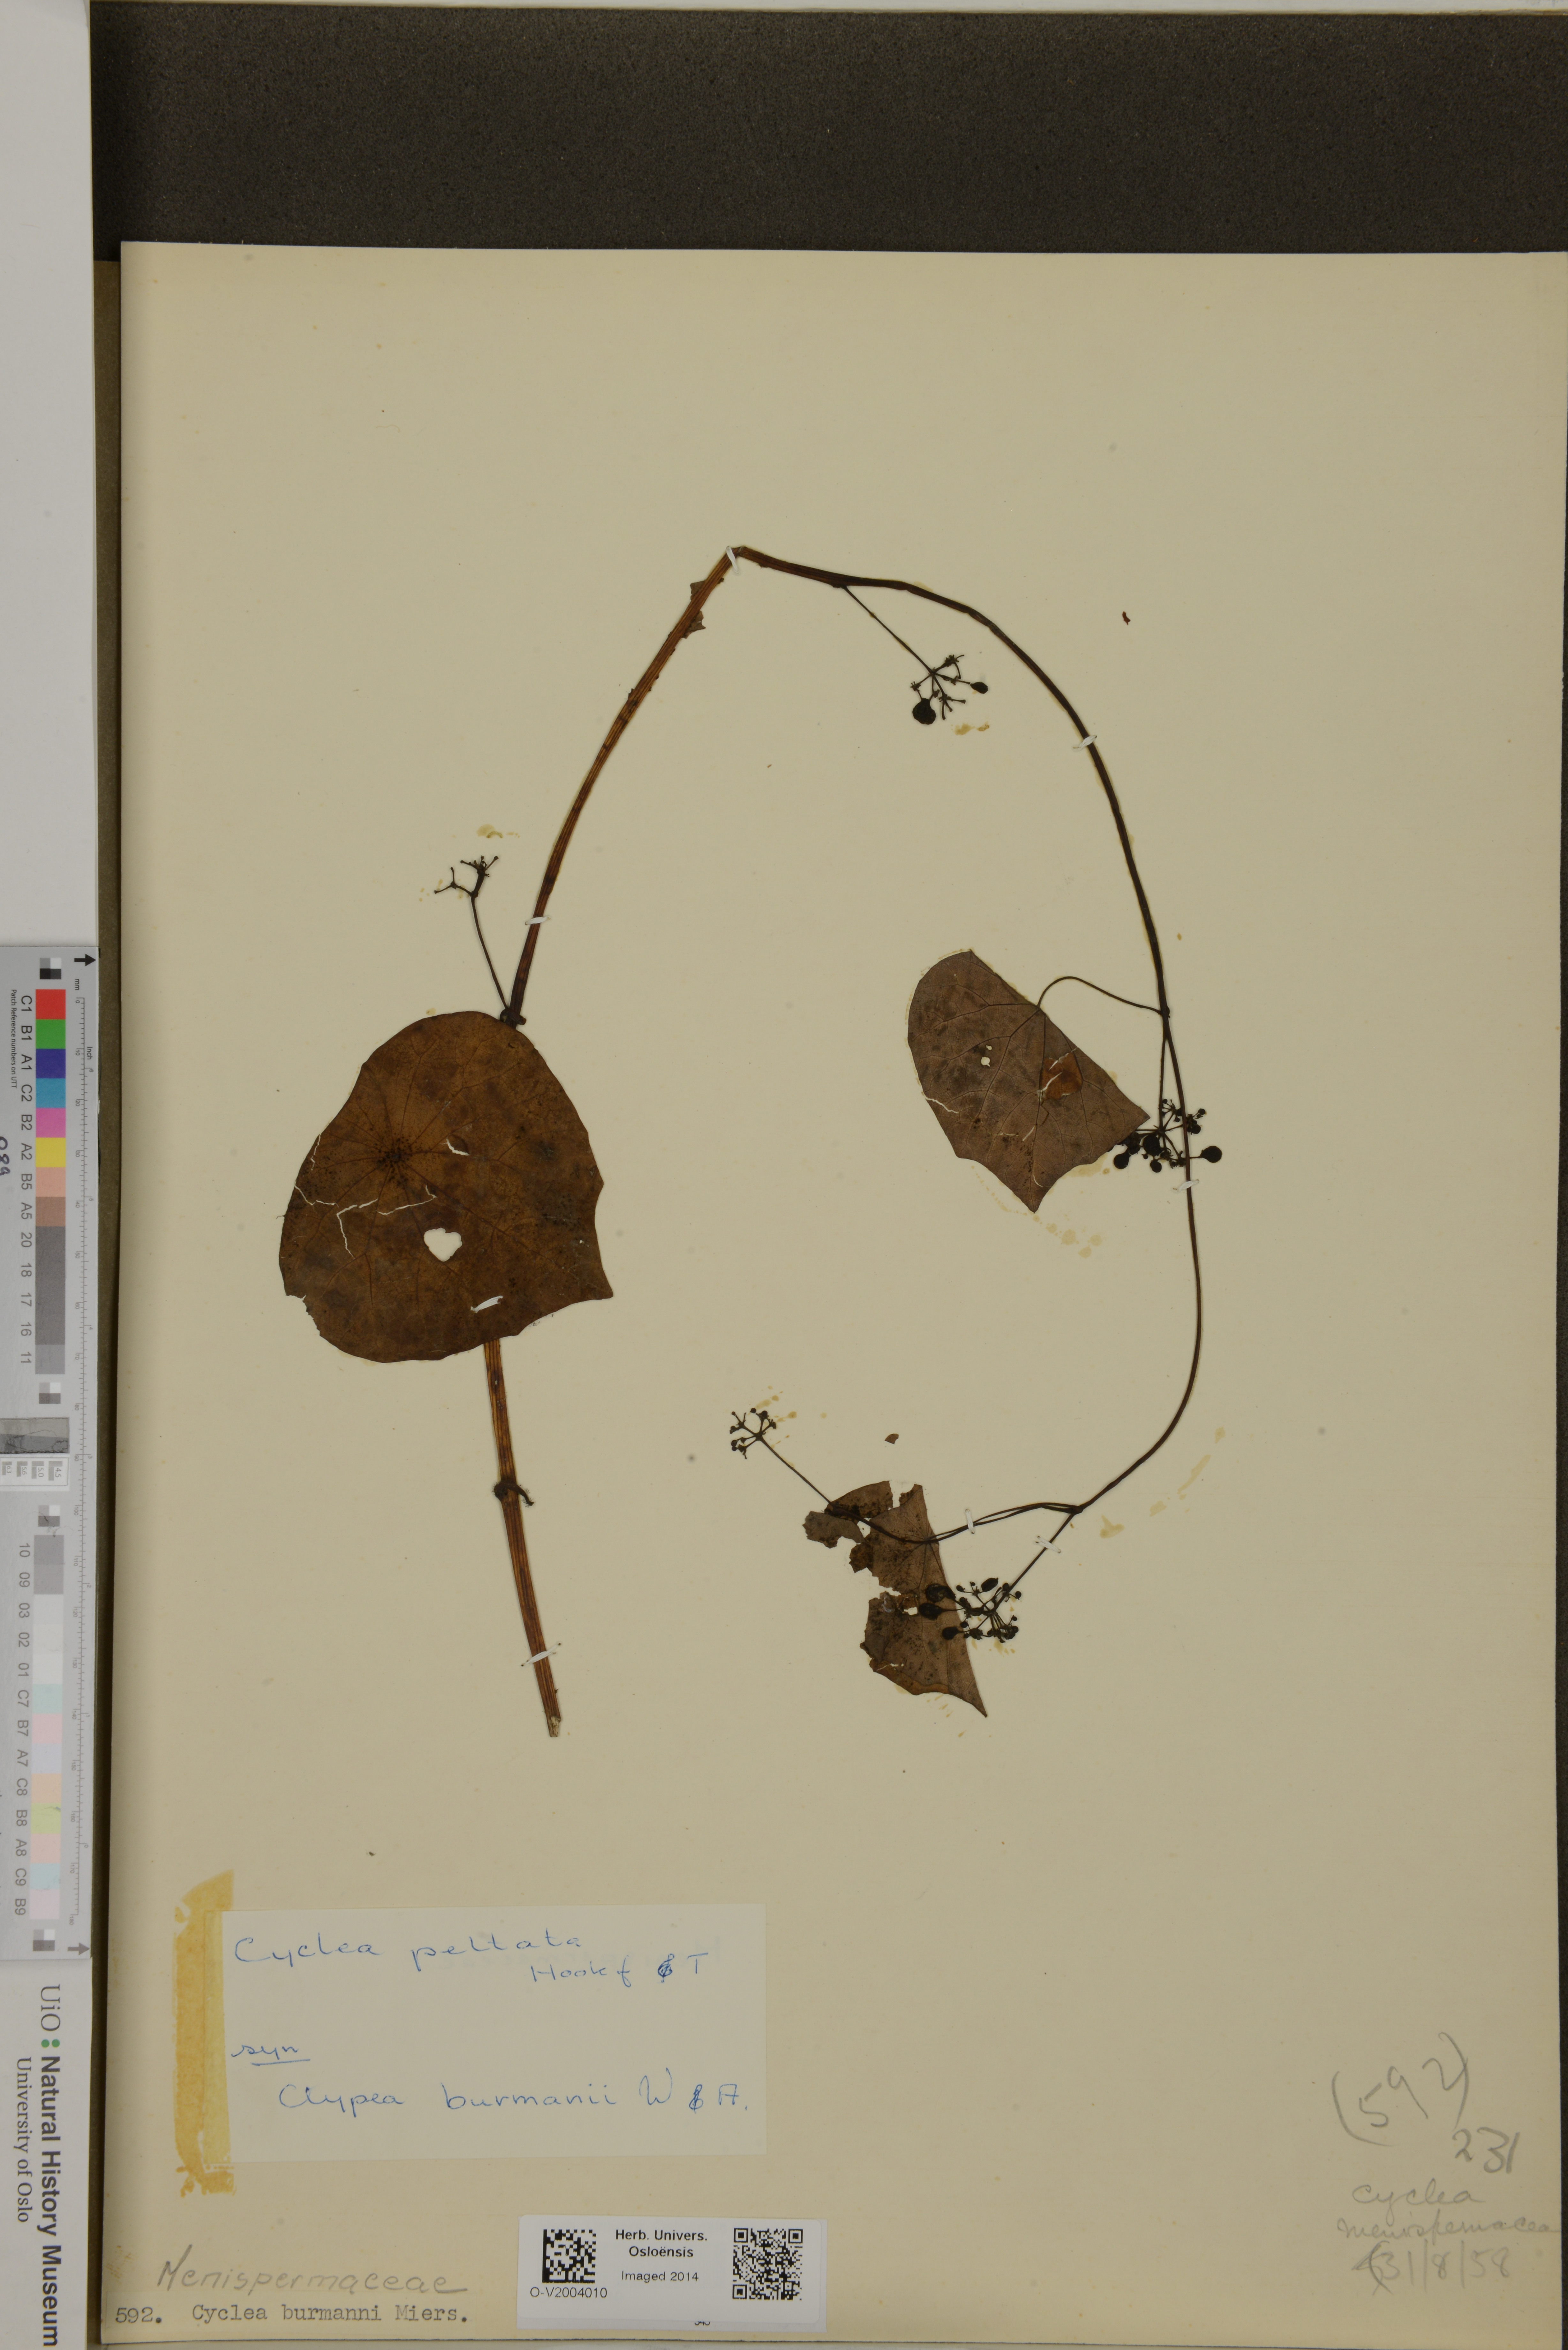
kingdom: Plantae
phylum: Tracheophyta
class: Magnoliopsida
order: Ranunculales
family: Menispermaceae
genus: Cyclea
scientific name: Cyclea peltata
